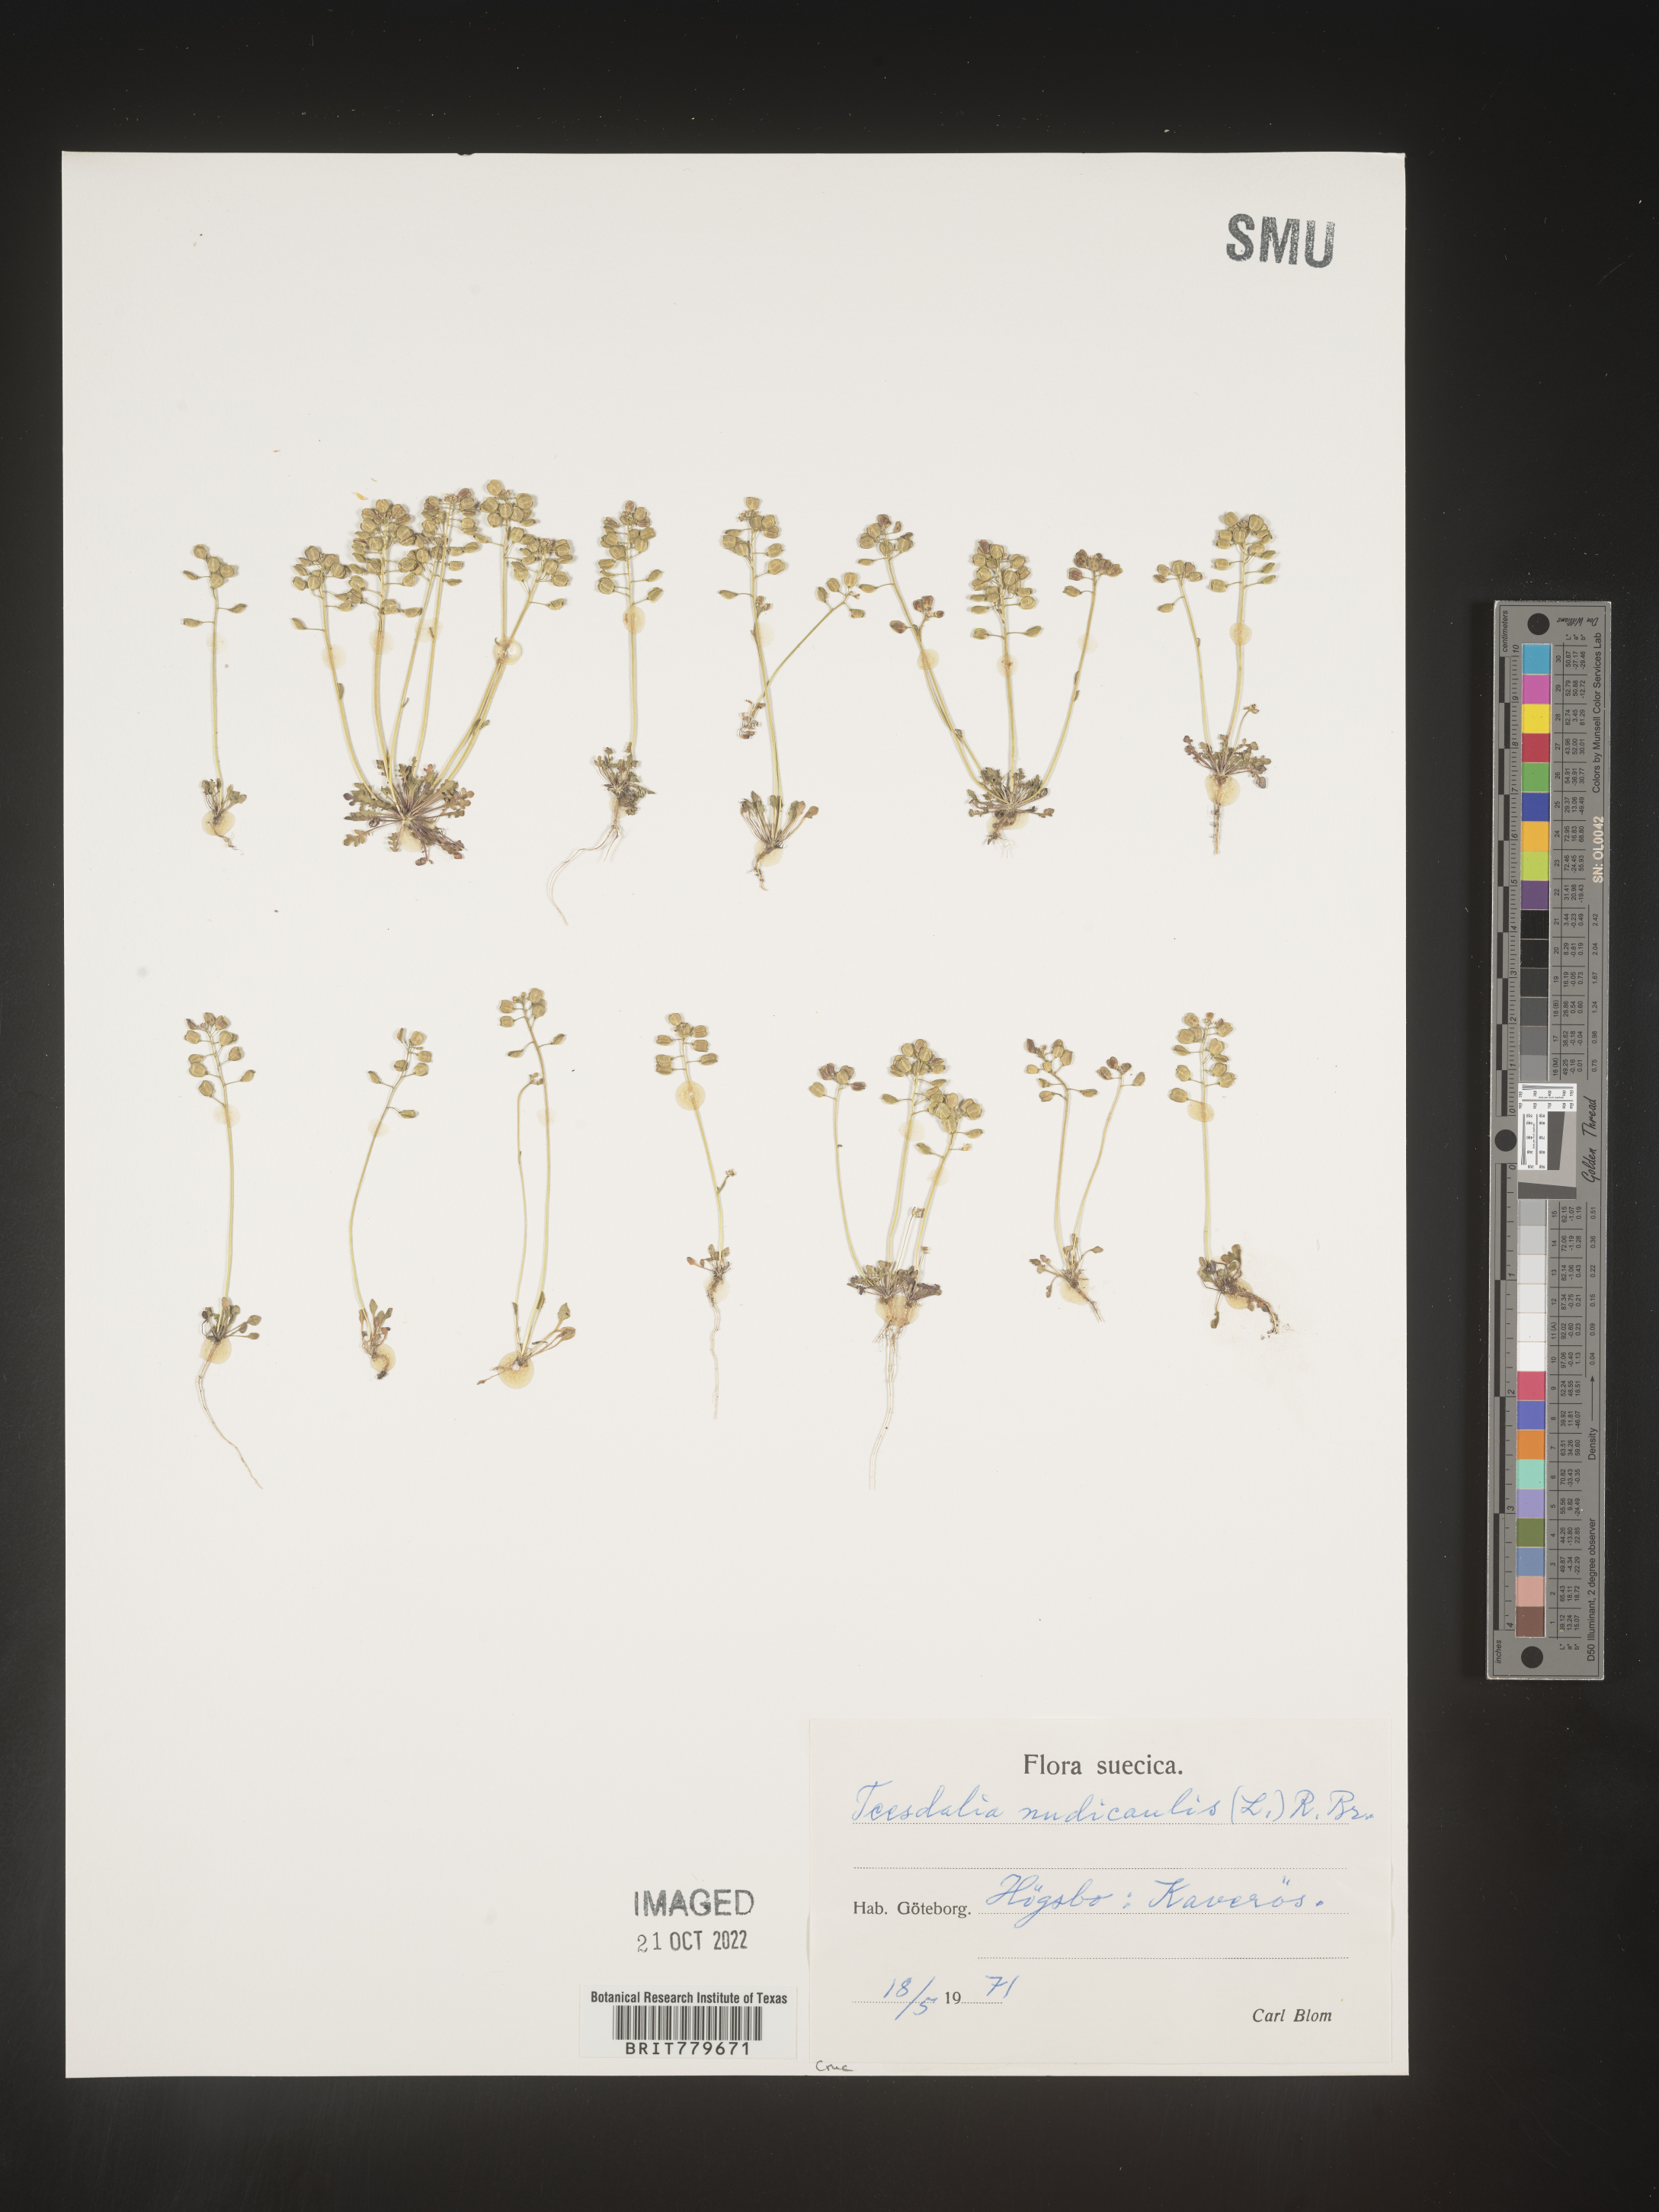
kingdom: Plantae
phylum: Tracheophyta
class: Magnoliopsida
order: Brassicales
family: Brassicaceae
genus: Teesdalia
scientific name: Teesdalia
